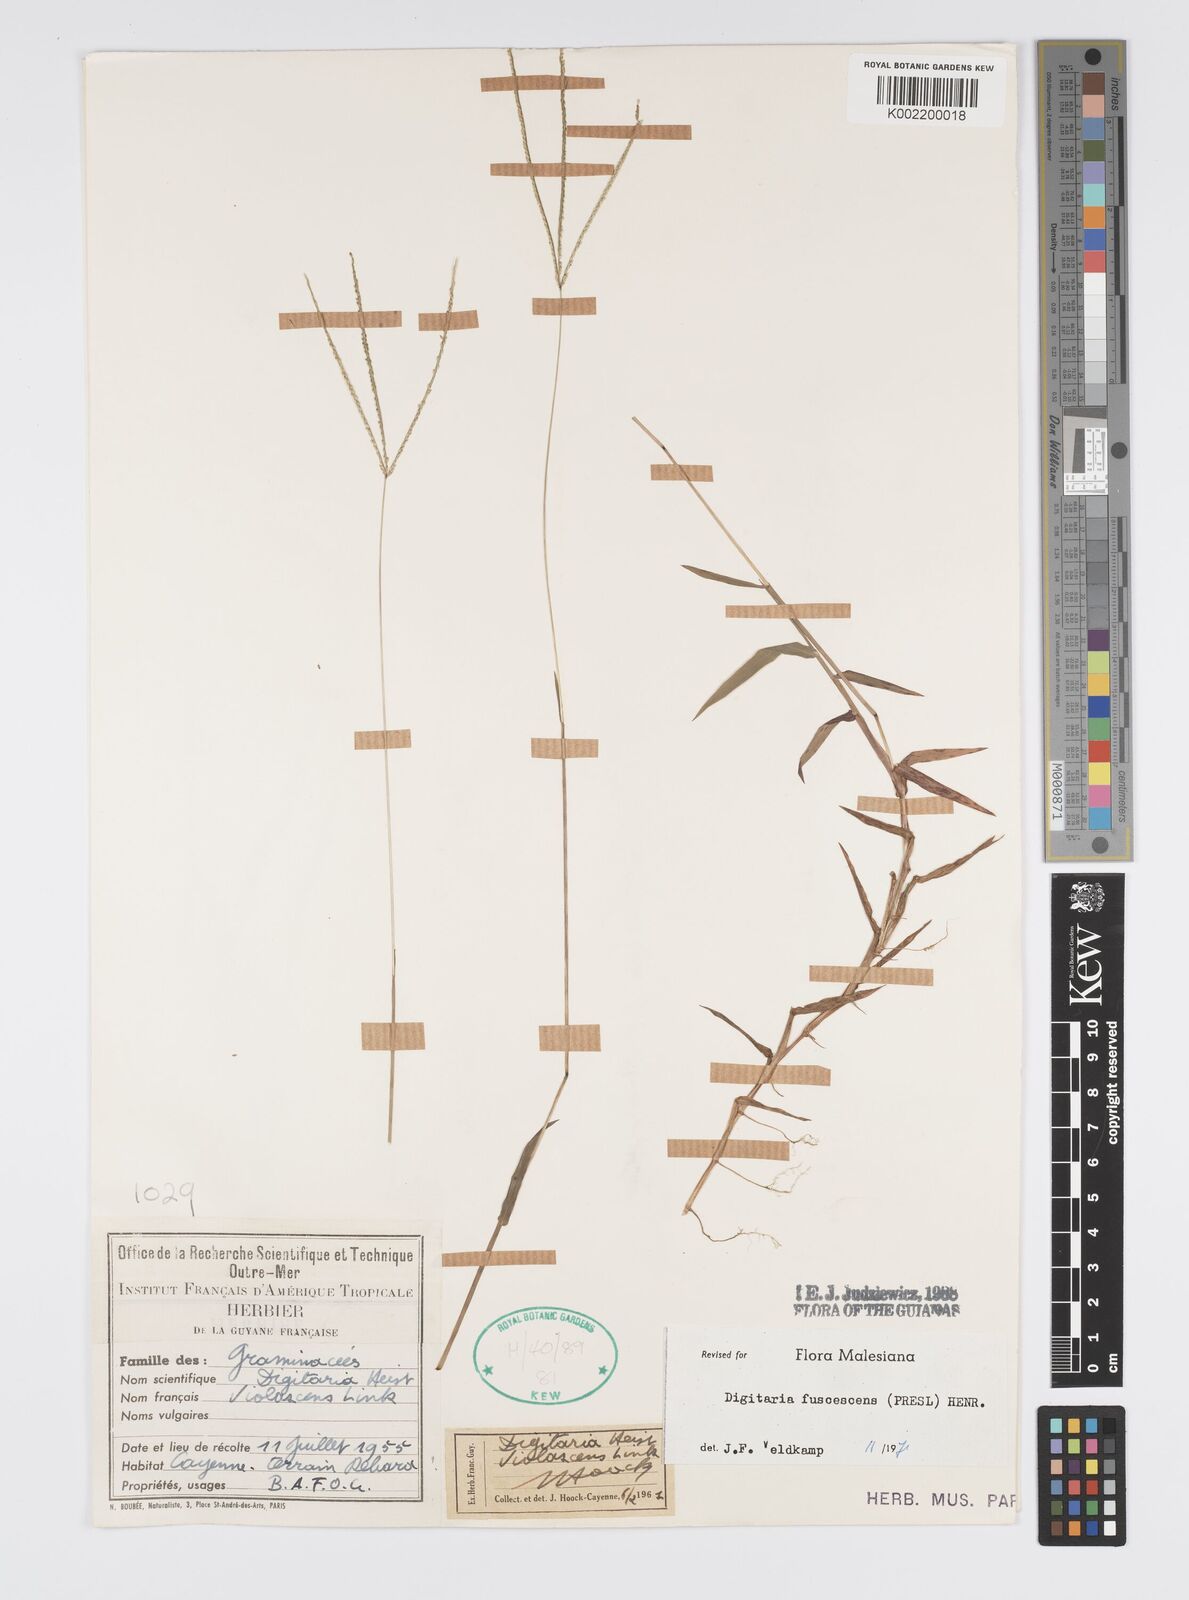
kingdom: Plantae
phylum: Tracheophyta
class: Liliopsida
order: Poales
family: Poaceae
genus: Digitaria
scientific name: Digitaria fuscescens
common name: Yellow crabgrass
